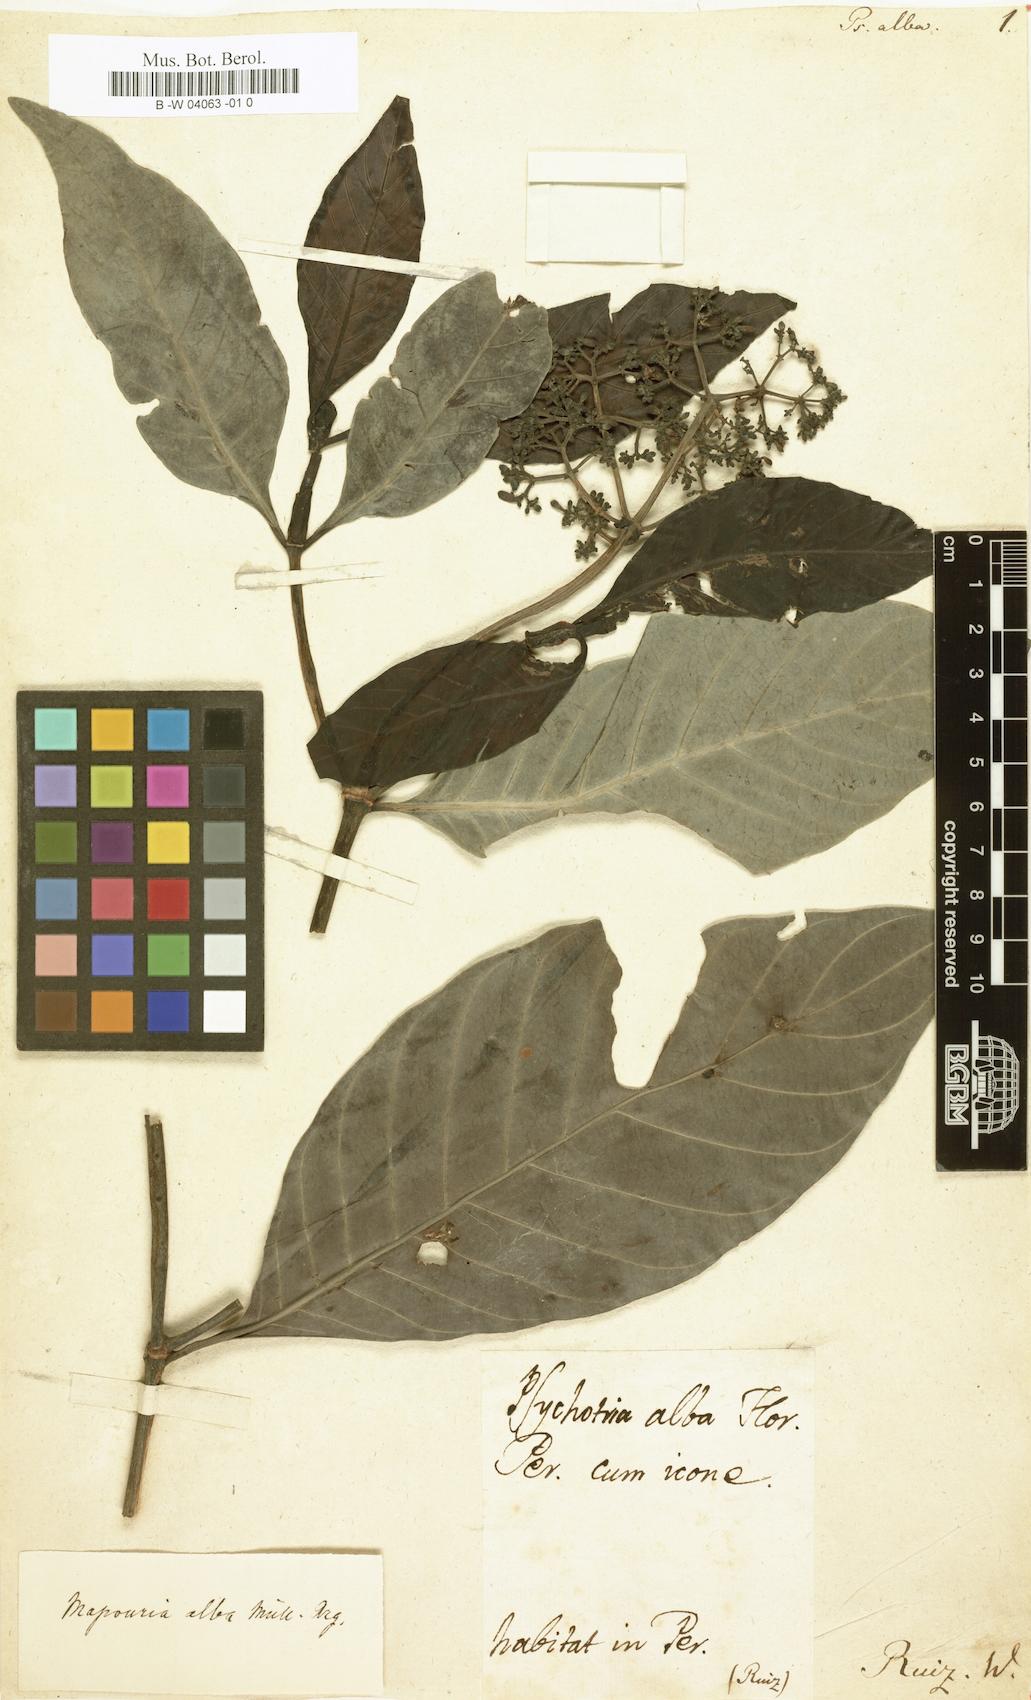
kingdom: Plantae
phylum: Tracheophyta
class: Magnoliopsida
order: Gentianales
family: Rubiaceae
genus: Psychotria
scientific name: Psychotria alba
